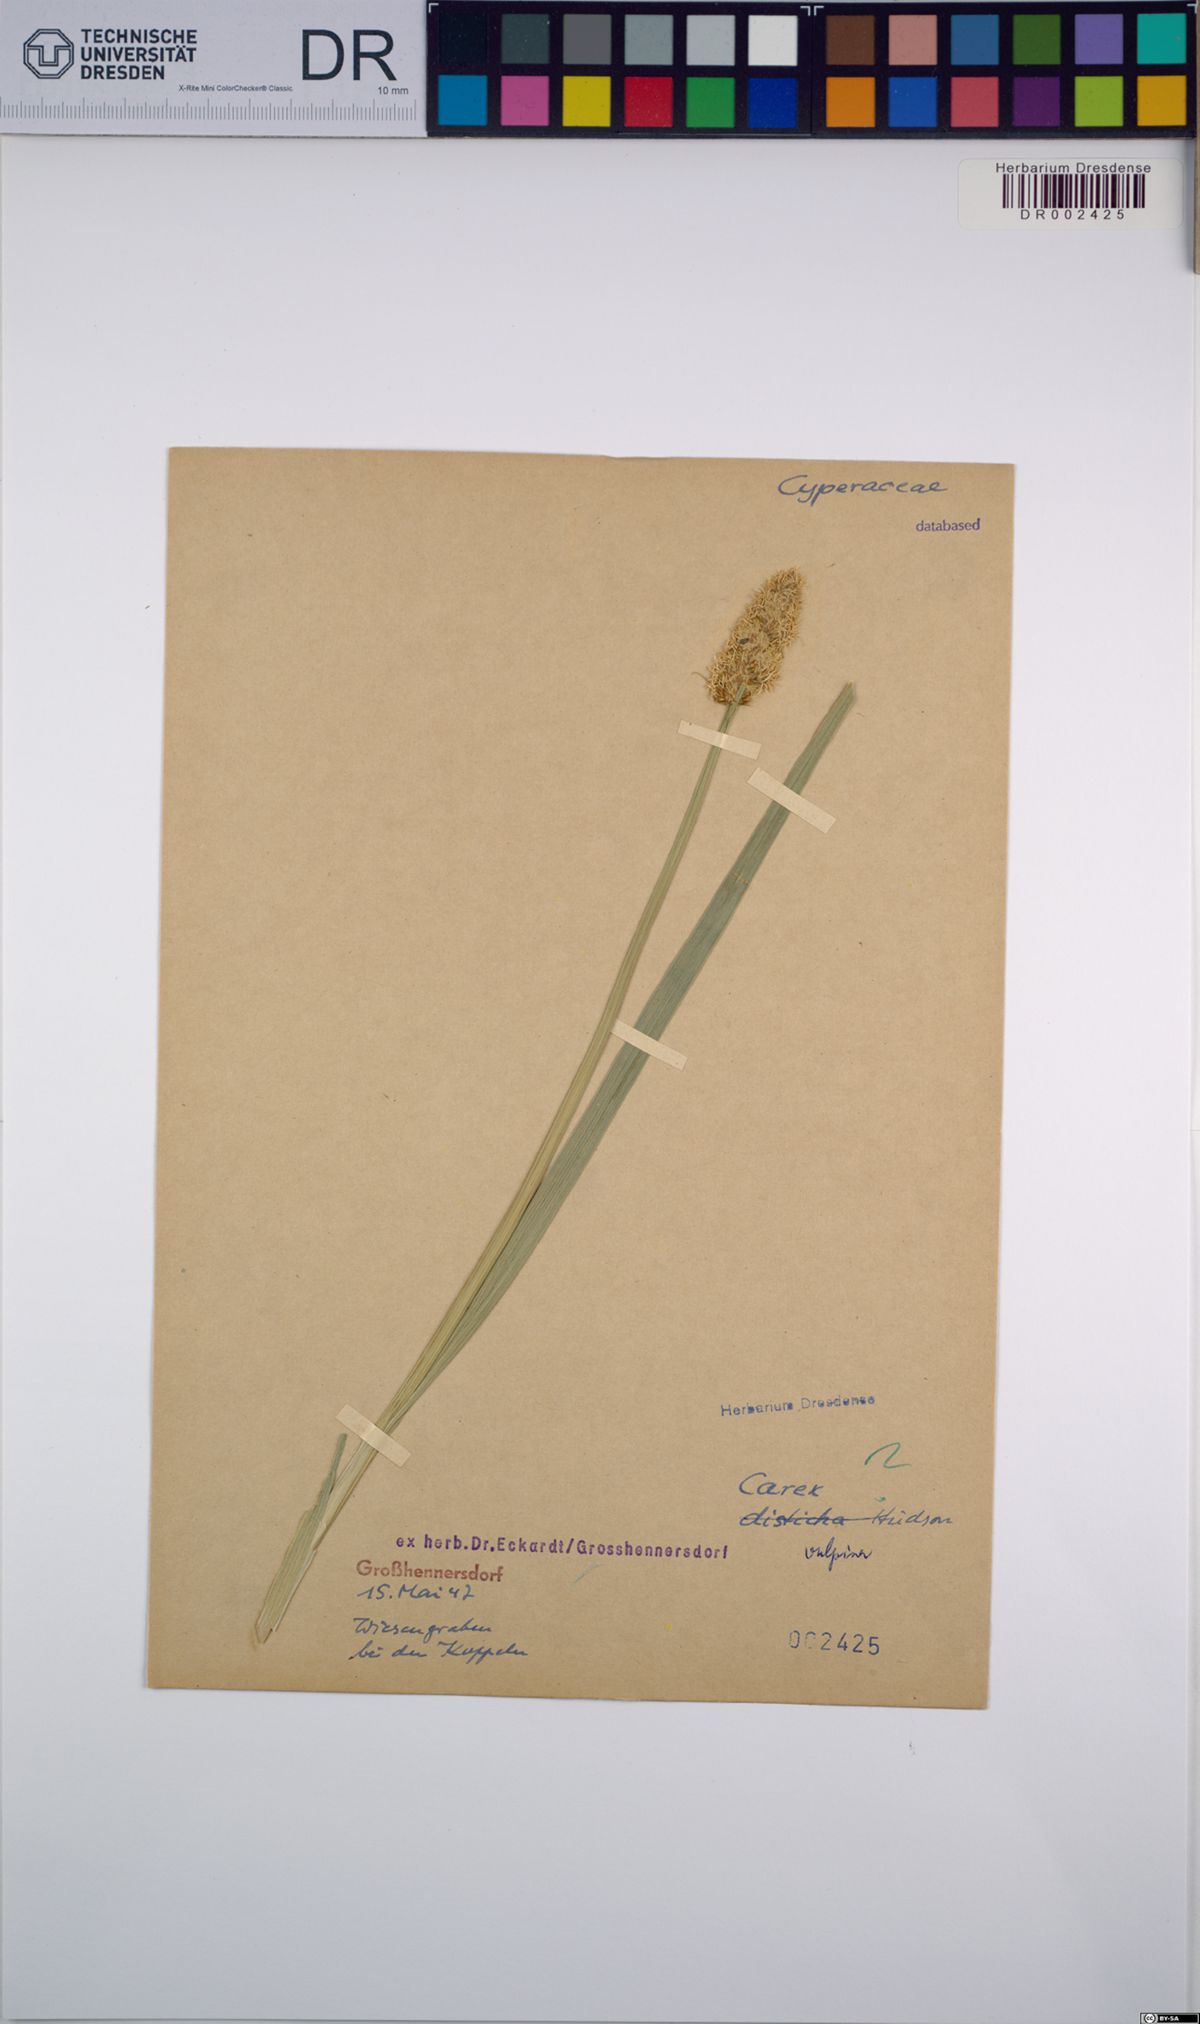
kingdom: Plantae
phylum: Tracheophyta
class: Liliopsida
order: Poales
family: Cyperaceae
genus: Carex
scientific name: Carex vulpina
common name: True fox-sedge
